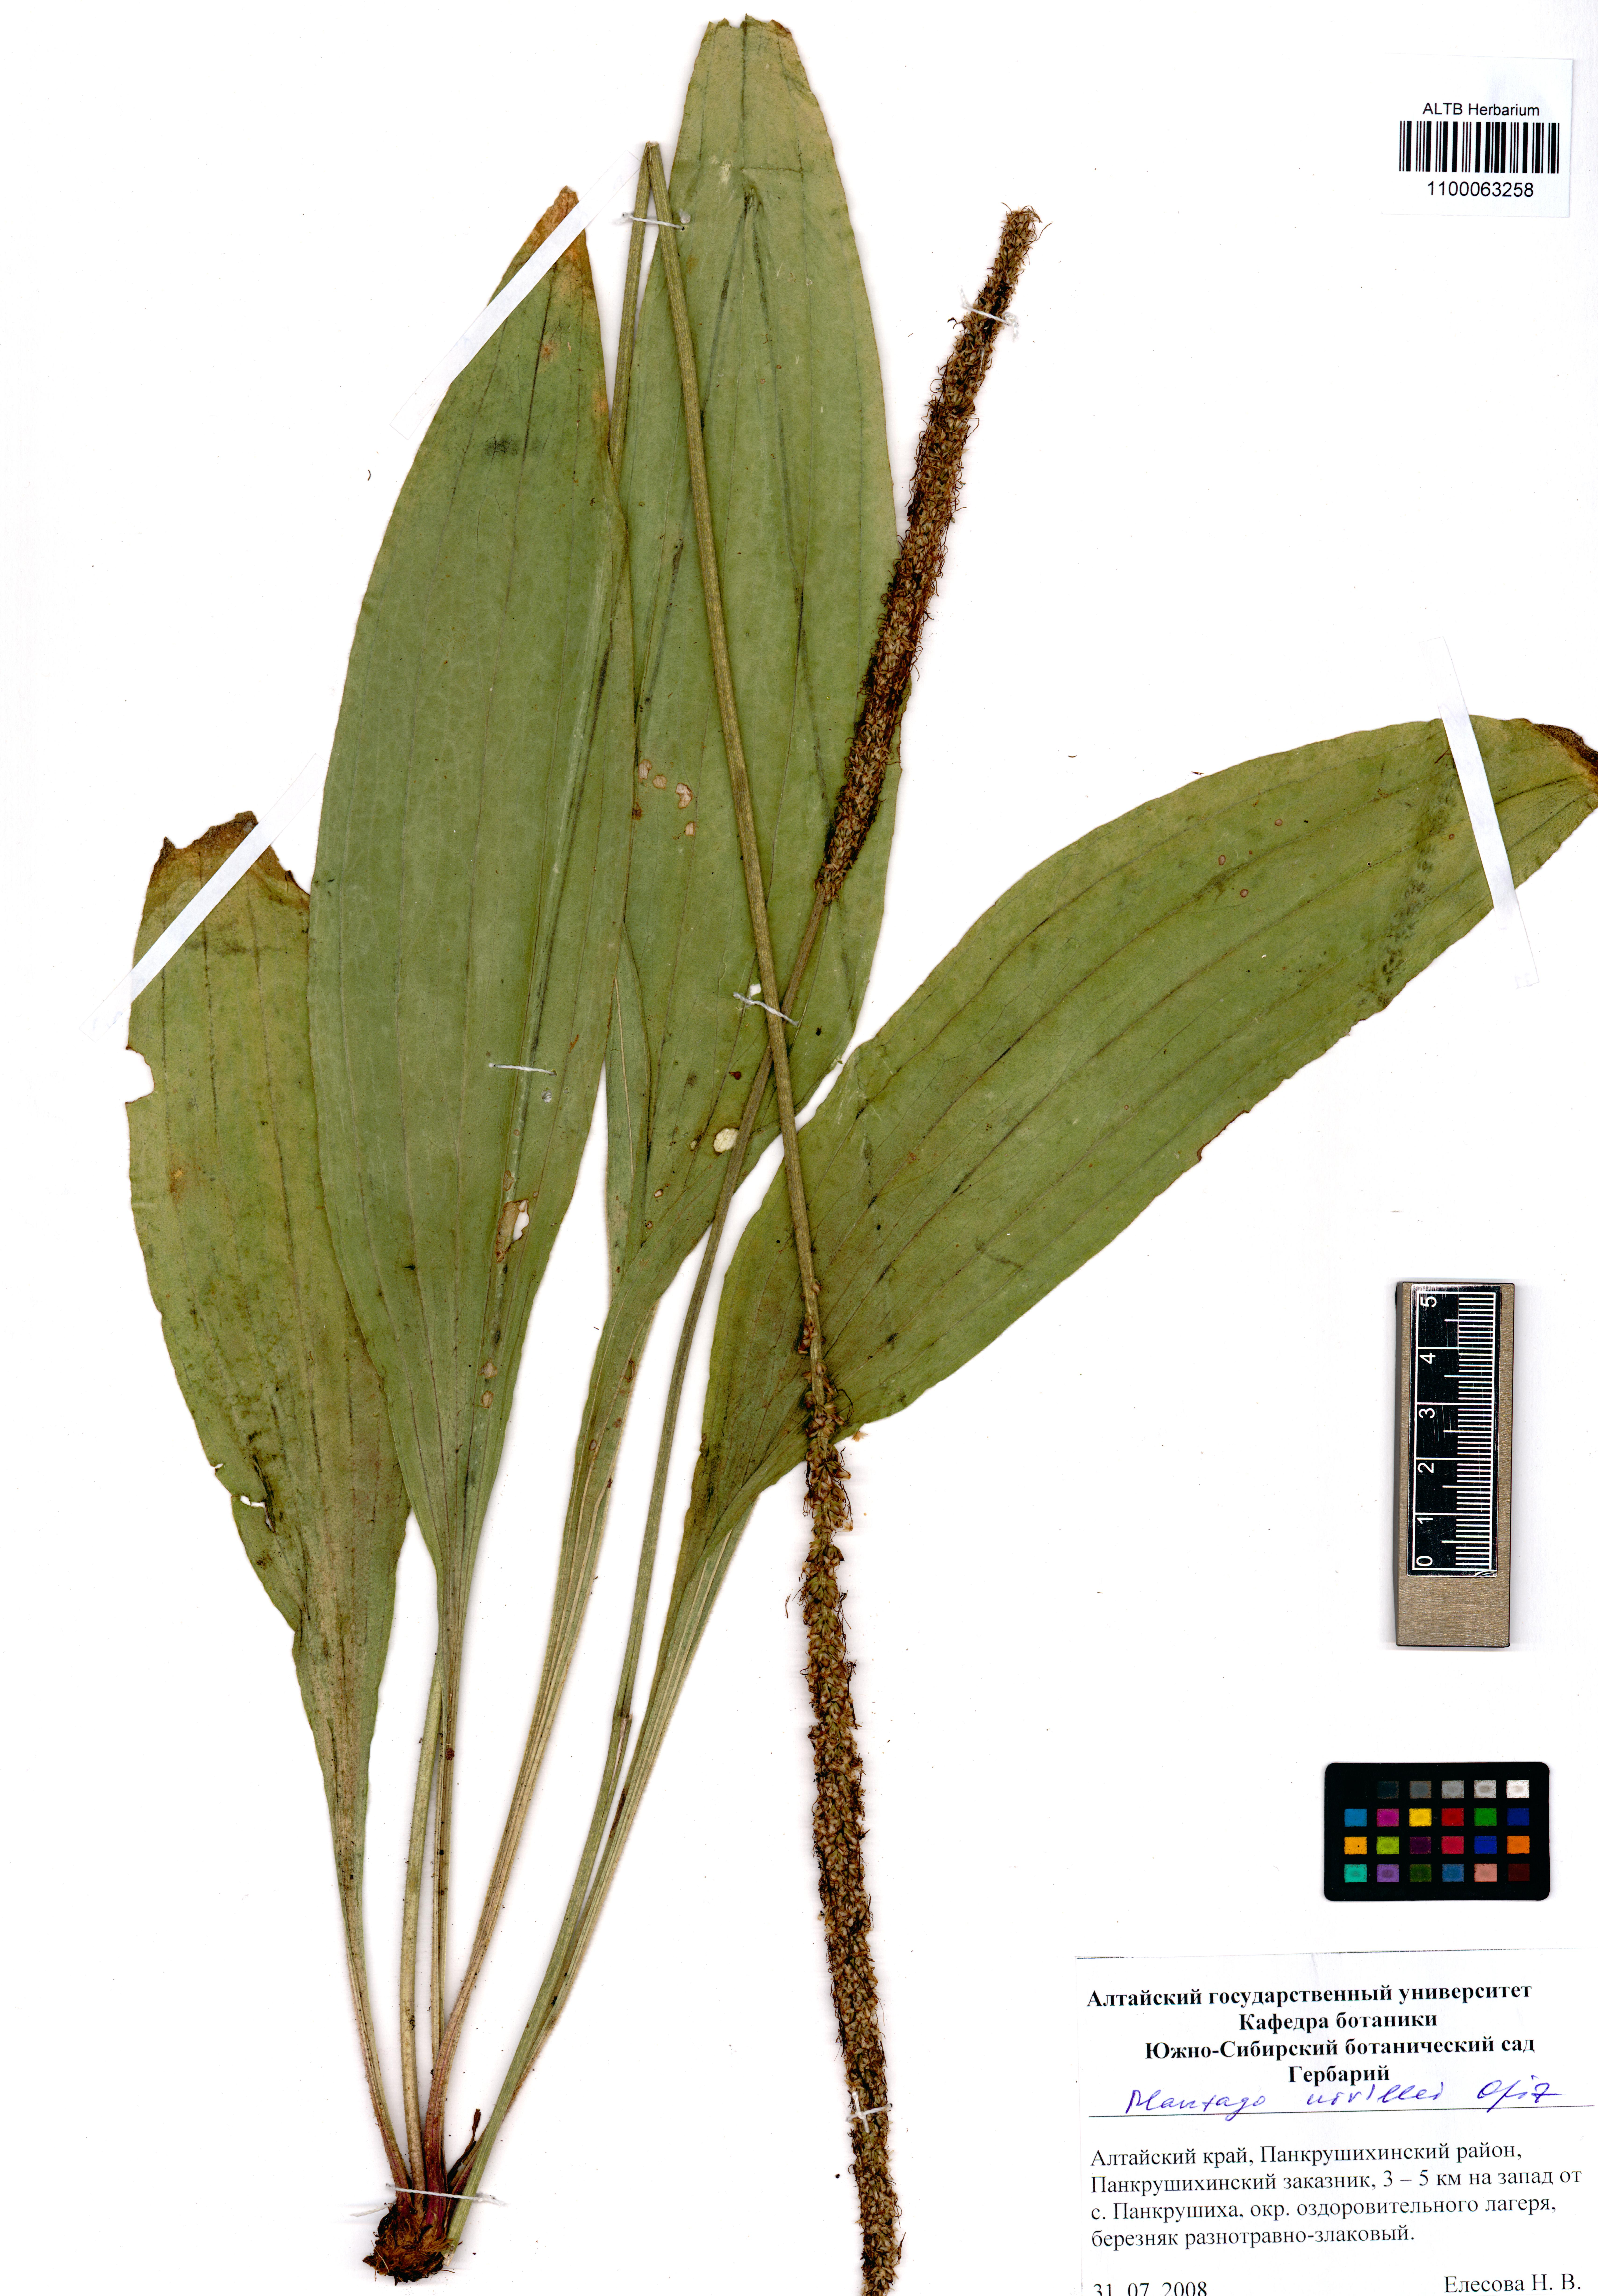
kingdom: Plantae
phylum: Tracheophyta
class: Magnoliopsida
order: Lamiales
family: Plantaginaceae
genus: Plantago
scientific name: Plantago urvillei
